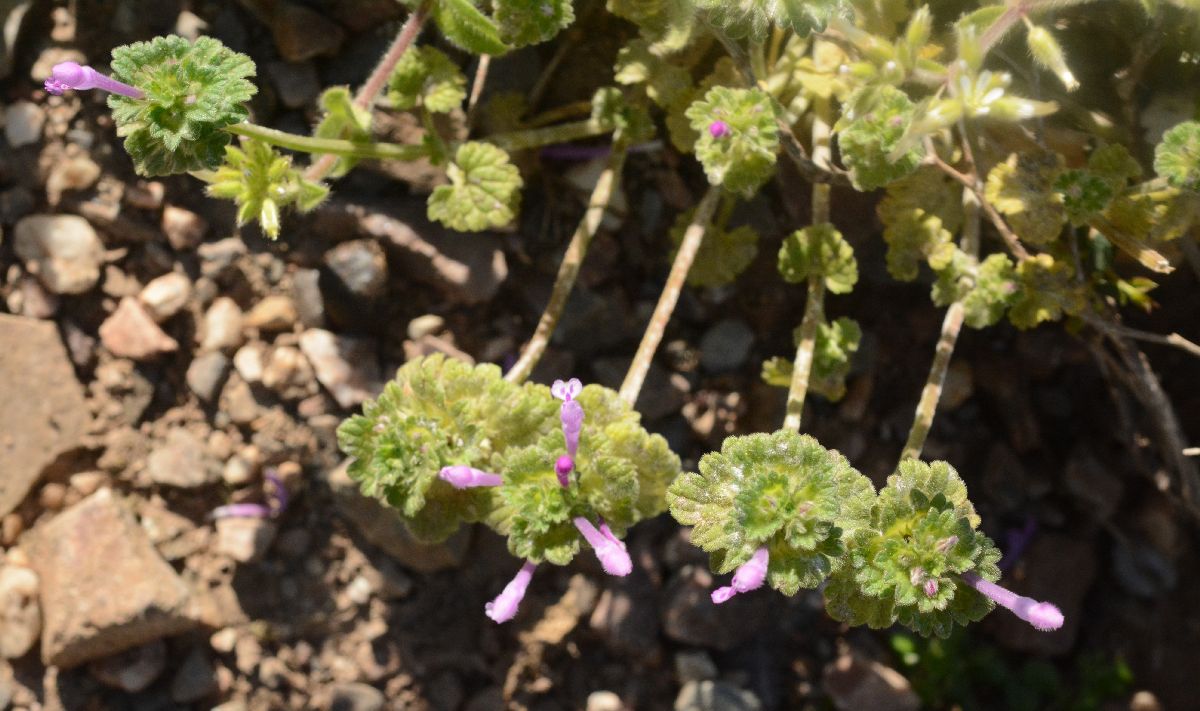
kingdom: Plantae
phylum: Tracheophyta
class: Magnoliopsida
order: Lamiales
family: Lamiaceae
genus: Lamium
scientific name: Lamium amplexicaule
